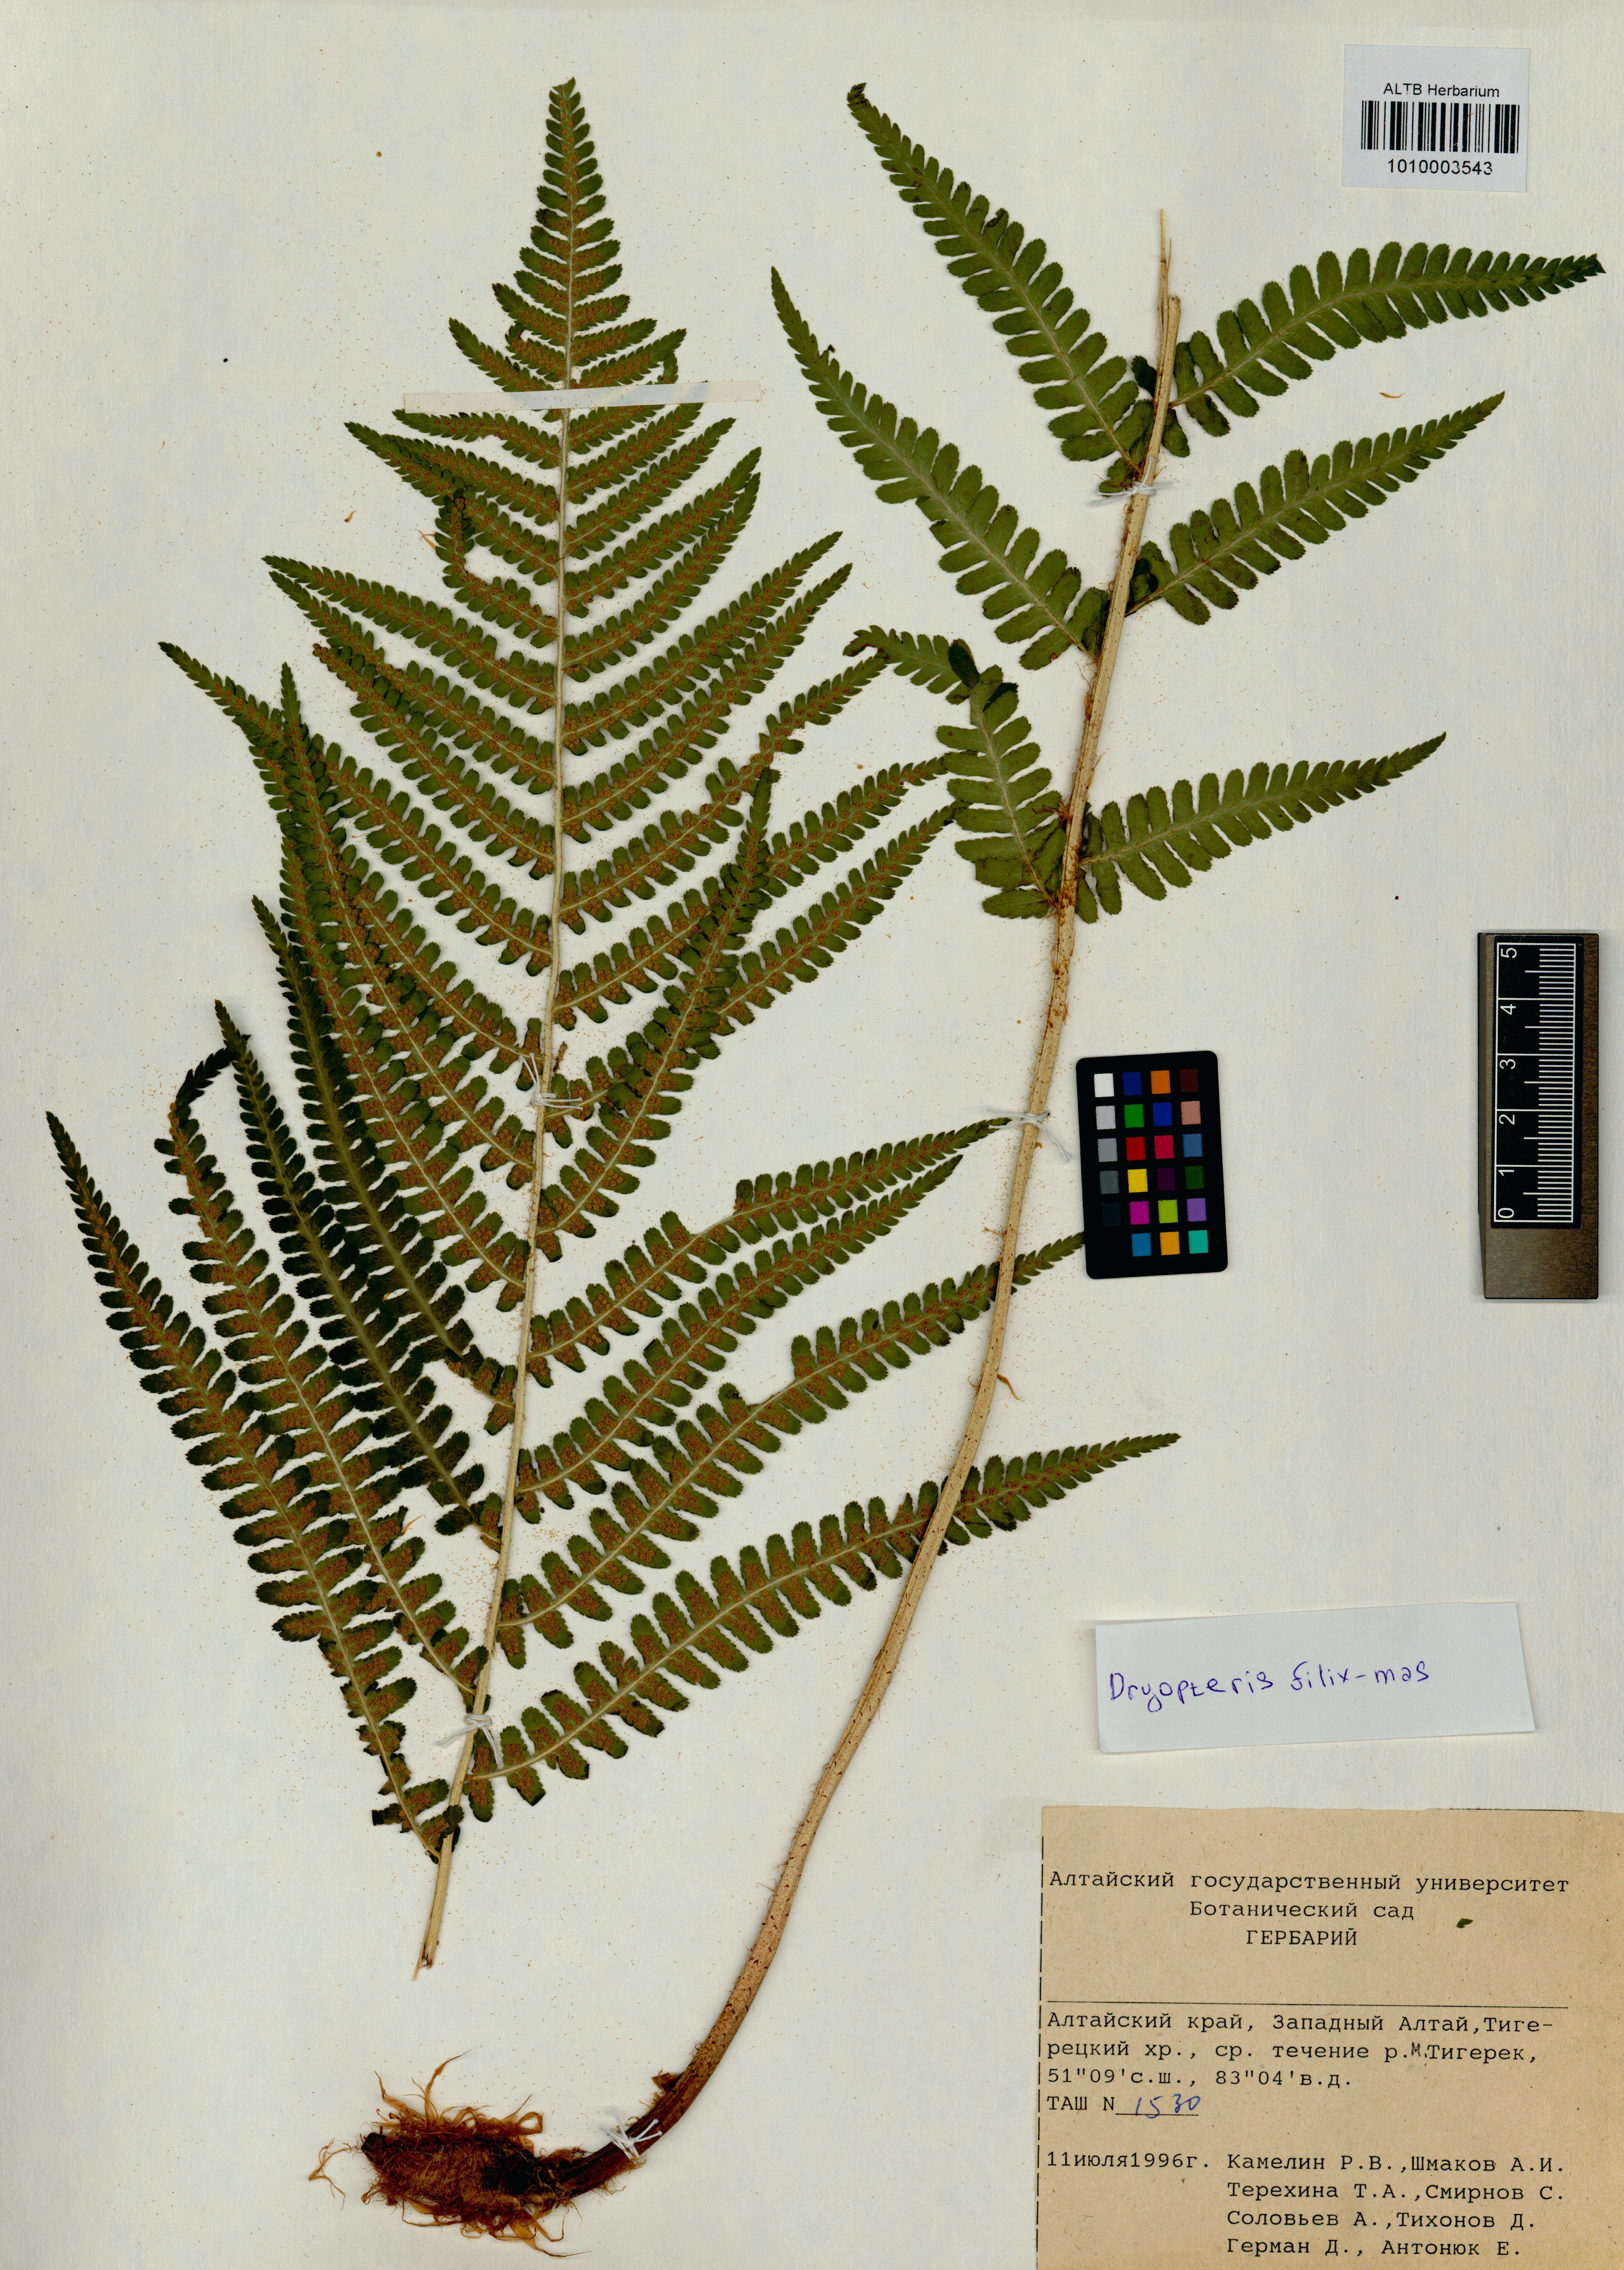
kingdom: Plantae
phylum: Tracheophyta
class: Polypodiopsida
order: Polypodiales
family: Dryopteridaceae
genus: Dryopteris
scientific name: Dryopteris filix-mas
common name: Male fern
